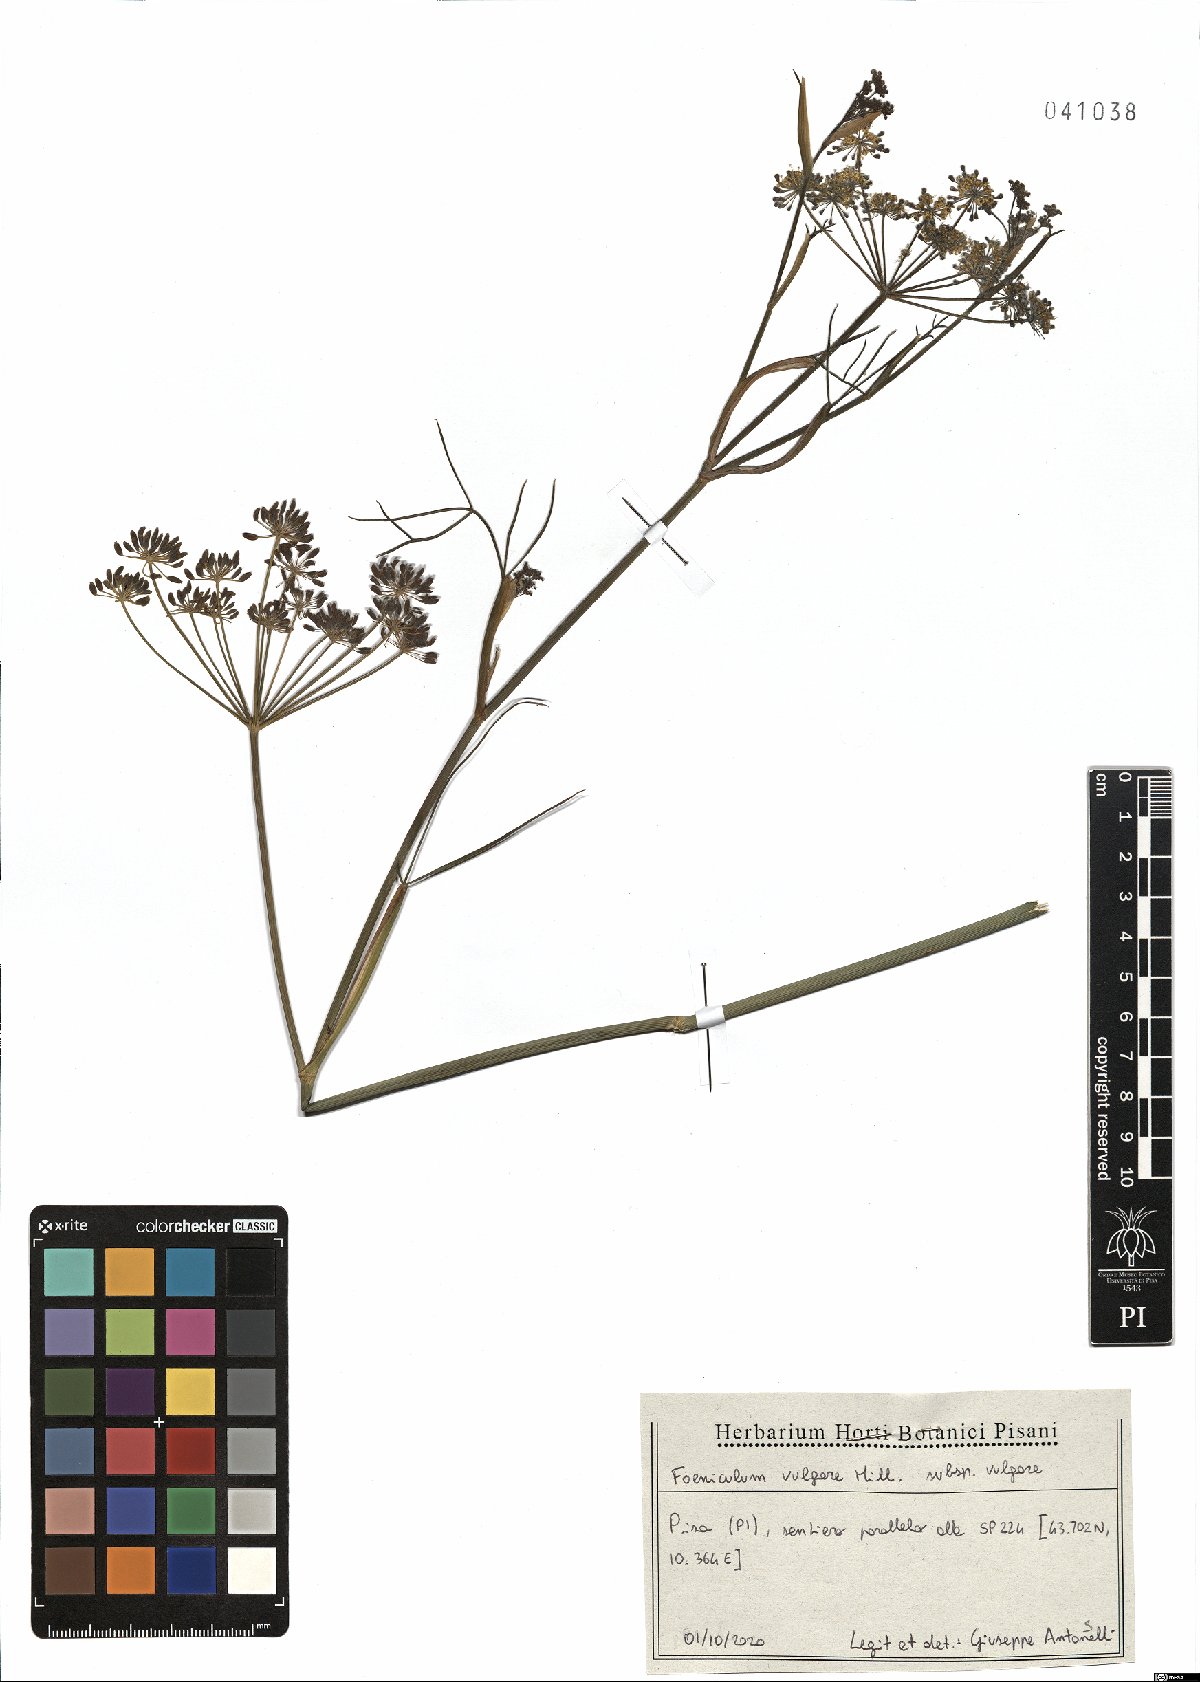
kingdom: Plantae
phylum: Tracheophyta
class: Magnoliopsida
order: Apiales
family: Apiaceae
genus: Foeniculum
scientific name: Foeniculum vulgare
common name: Fennel
